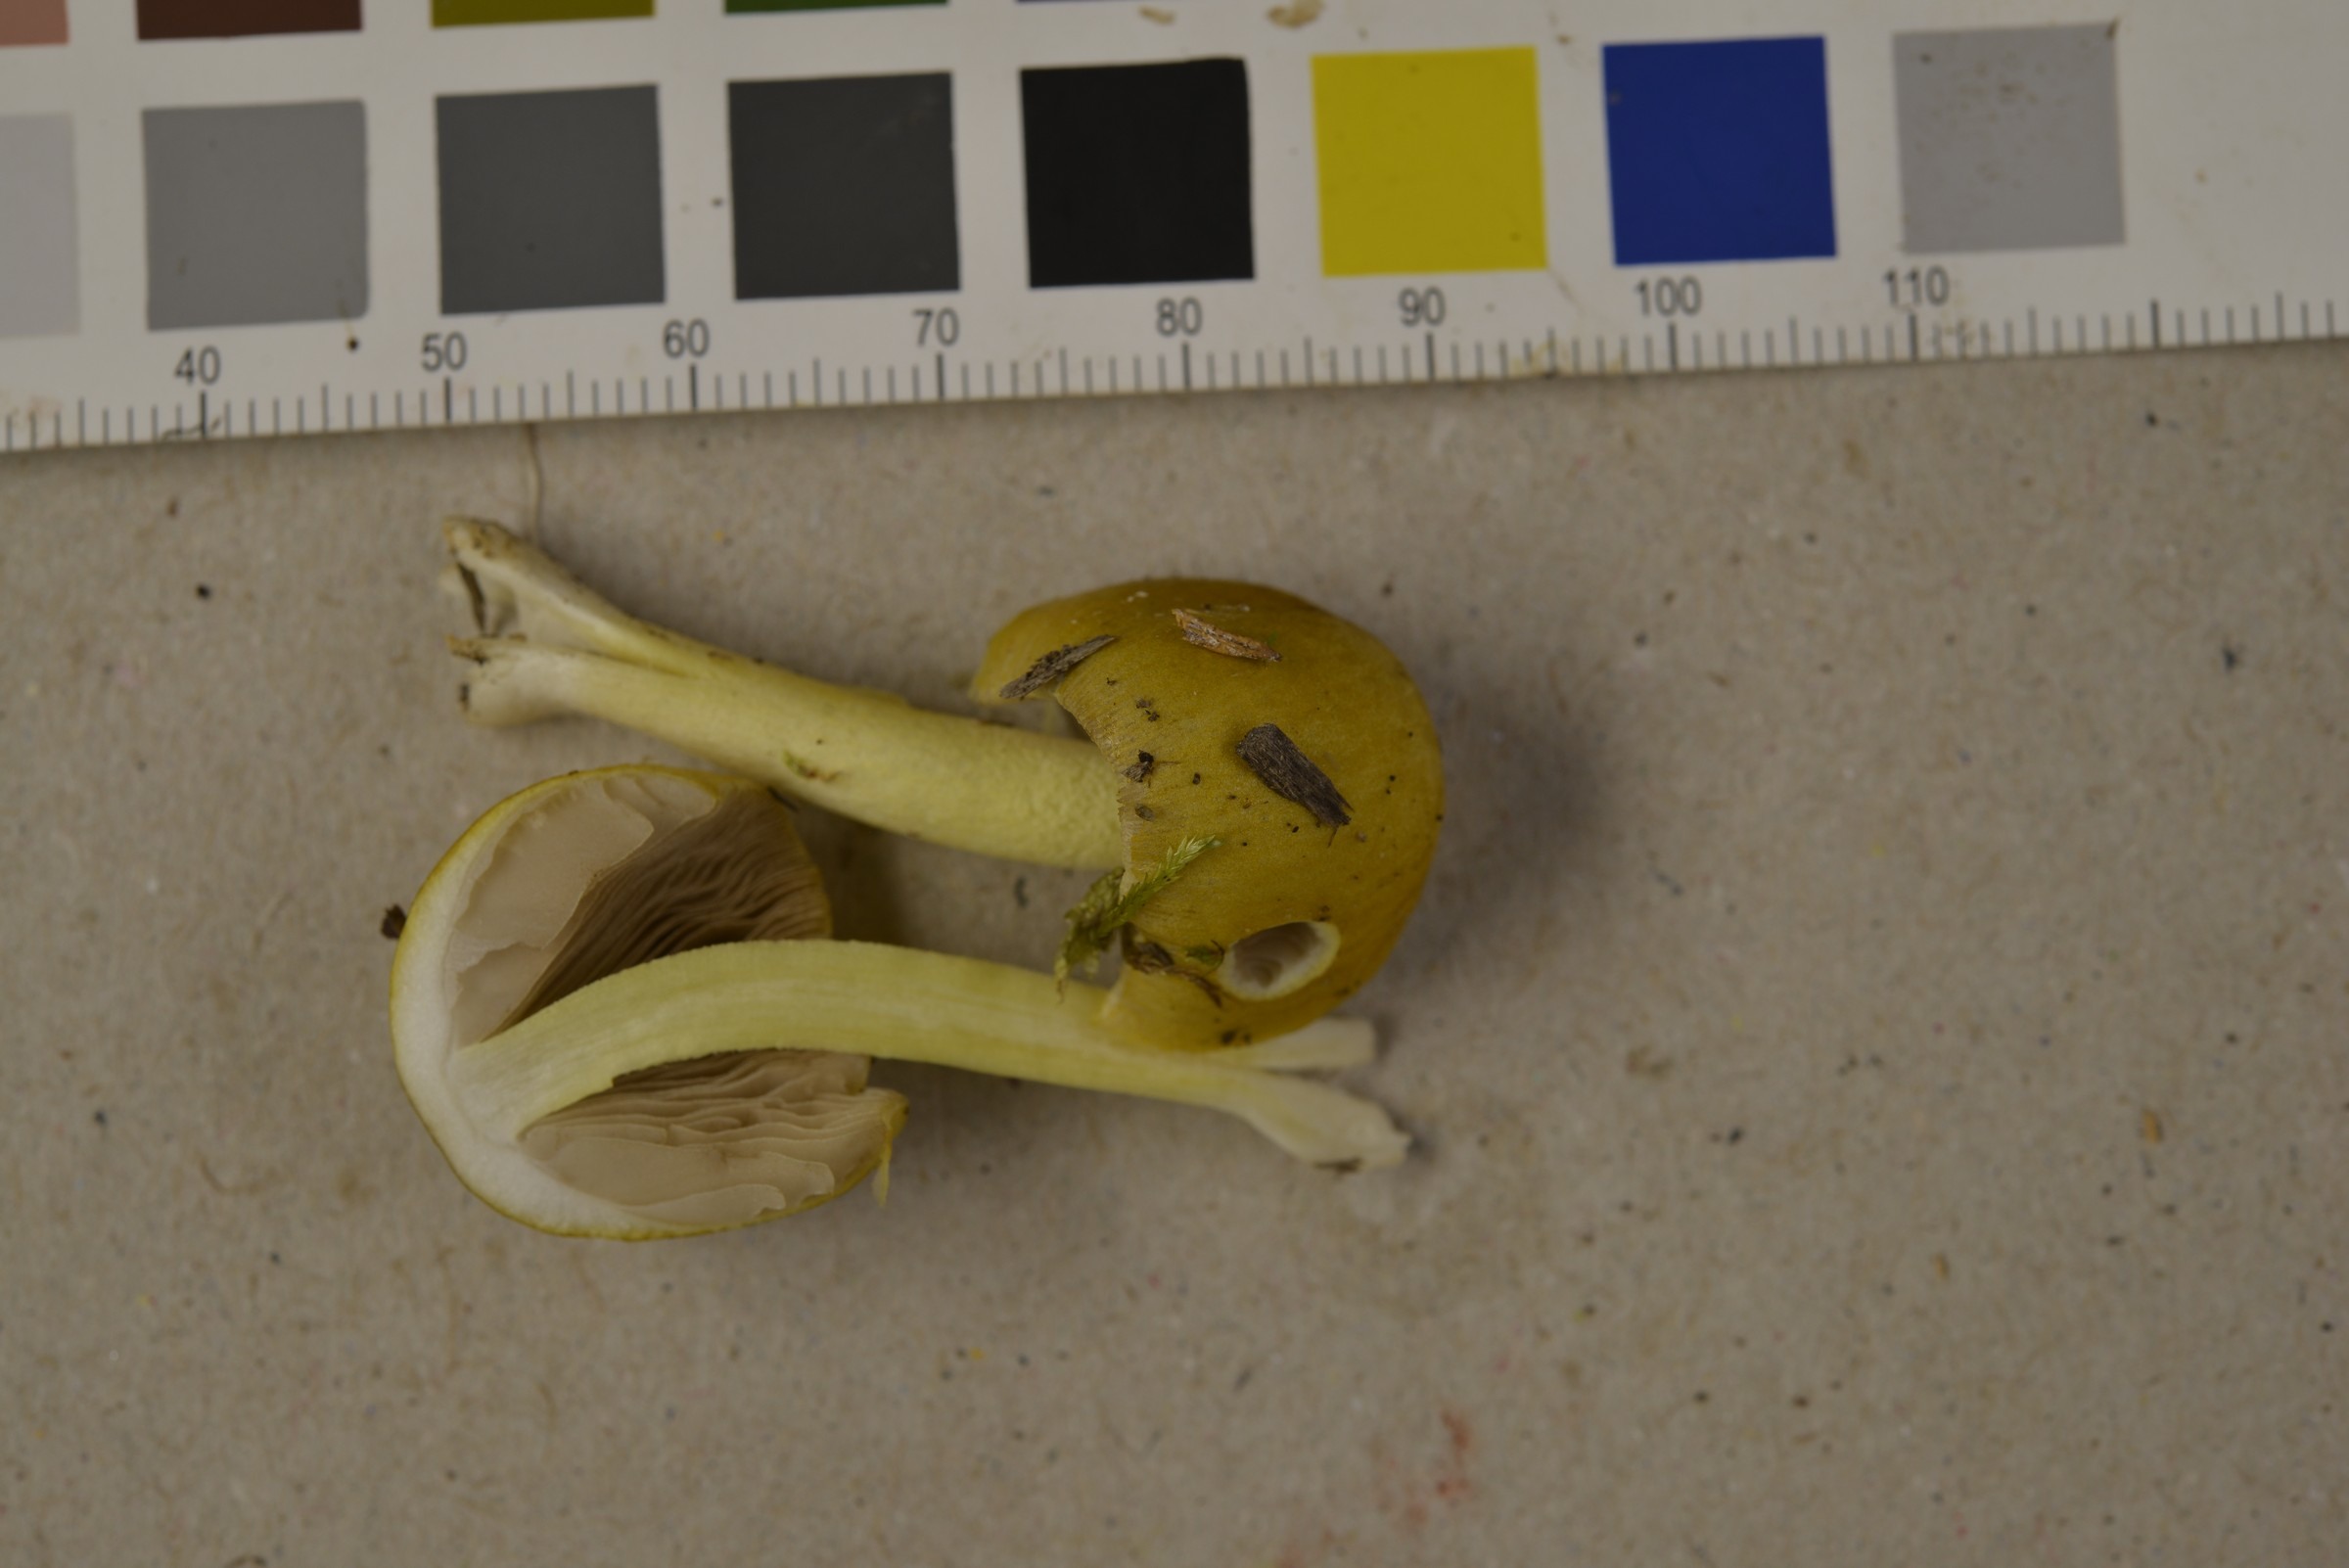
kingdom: Fungi
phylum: Basidiomycota
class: Agaricomycetes
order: Agaricales
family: Bolbitiaceae
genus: Bolbitius
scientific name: Bolbitius titubans
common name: Yellow fieldcap
